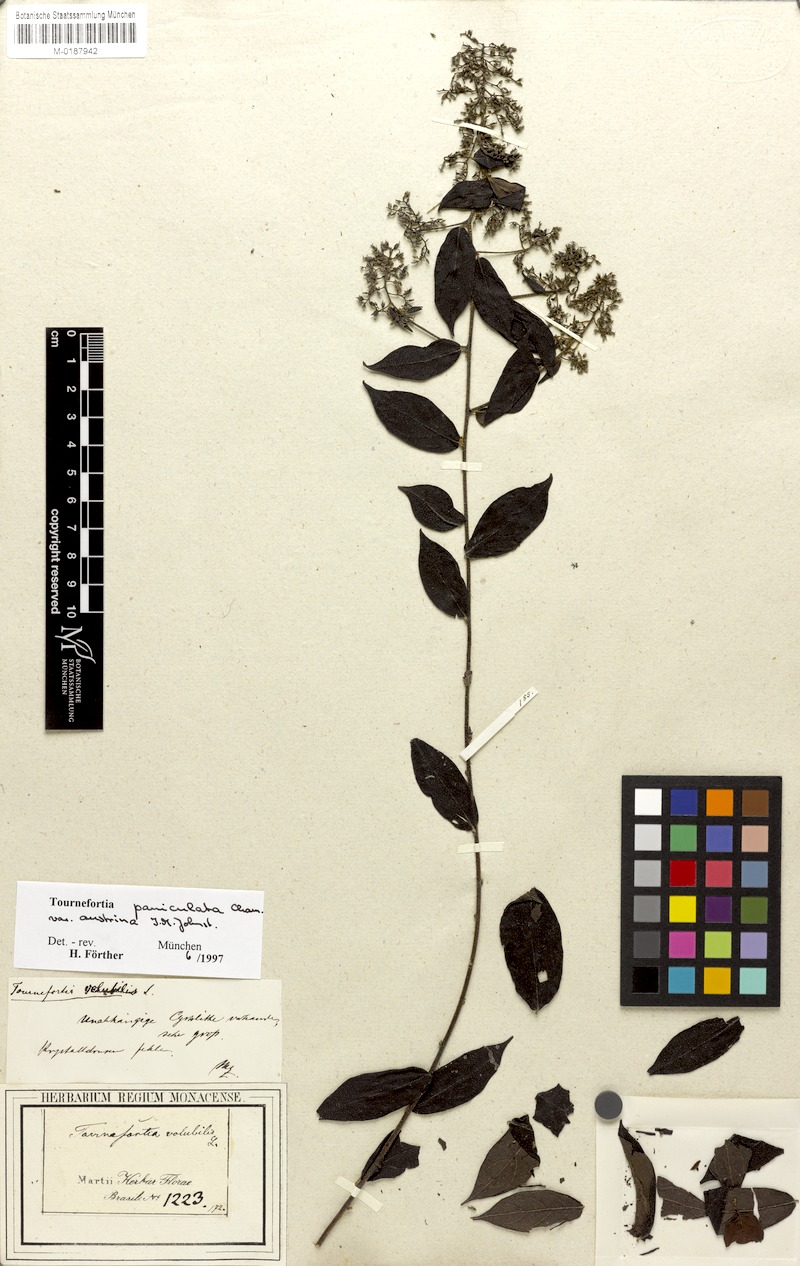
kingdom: Plantae
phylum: Tracheophyta
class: Magnoliopsida
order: Boraginales
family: Heliotropiaceae
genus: Myriopus
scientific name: Myriopus paniculatus
